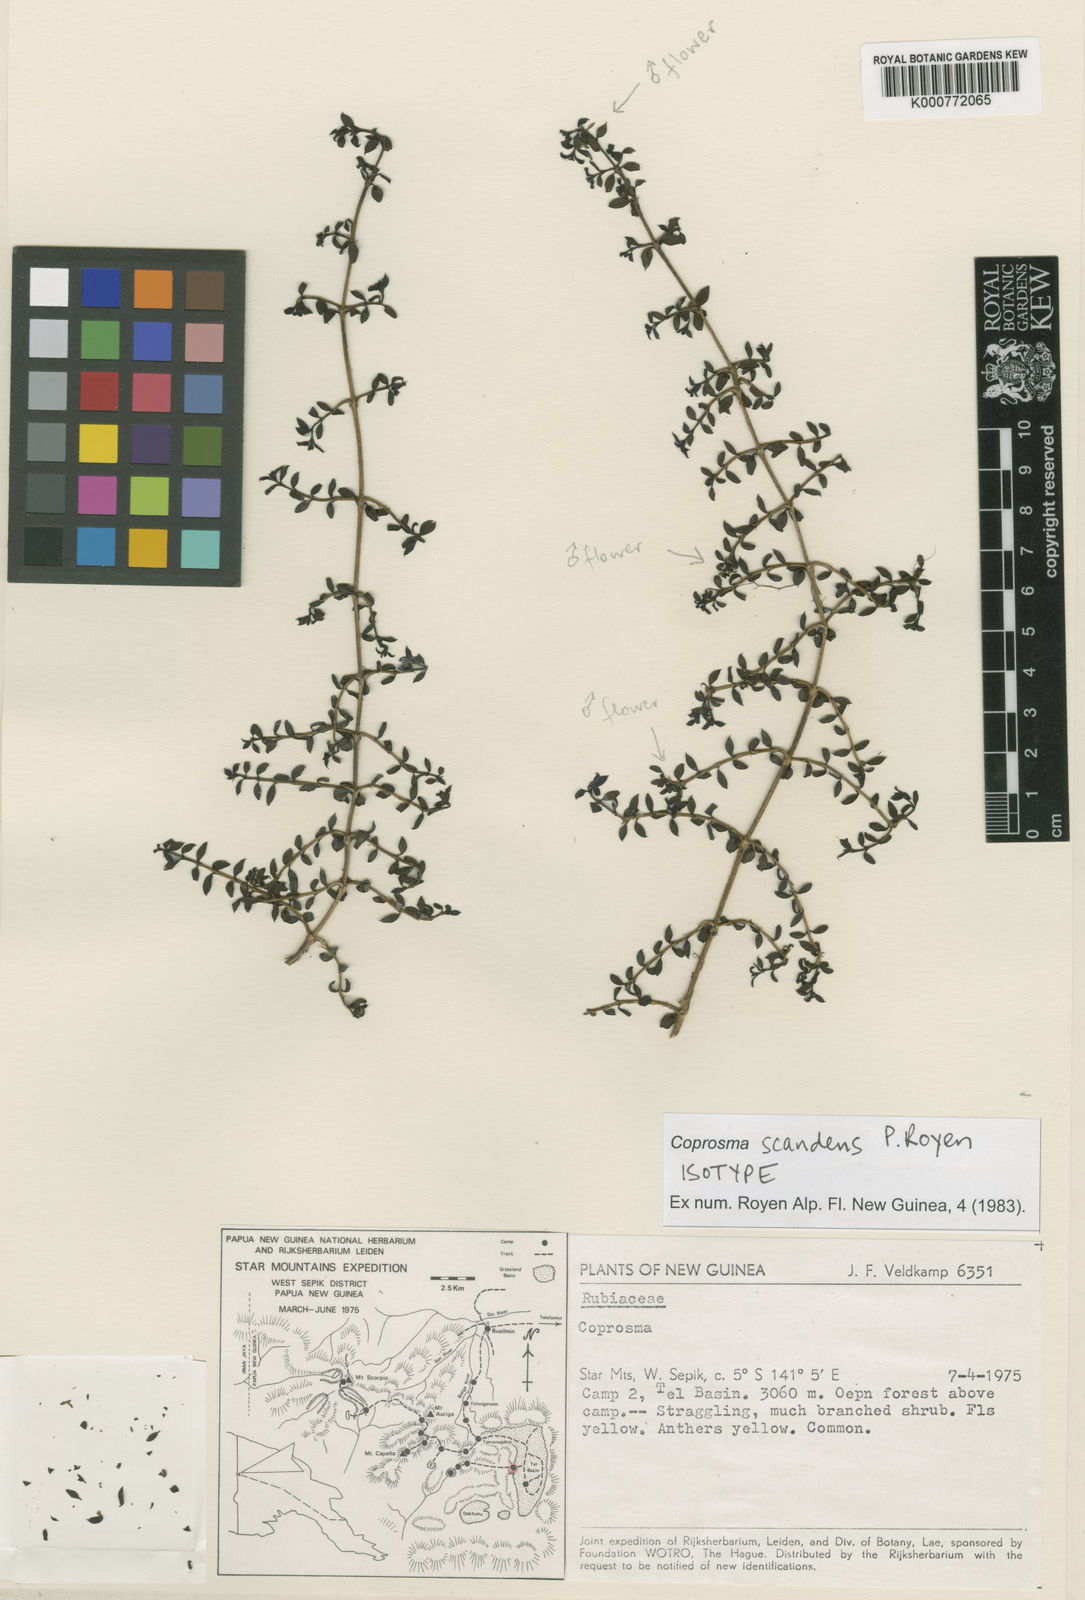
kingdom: Plantae
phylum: Tracheophyta
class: Magnoliopsida
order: Gentianales
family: Rubiaceae
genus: Coprosma
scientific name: Coprosma wollastonii
